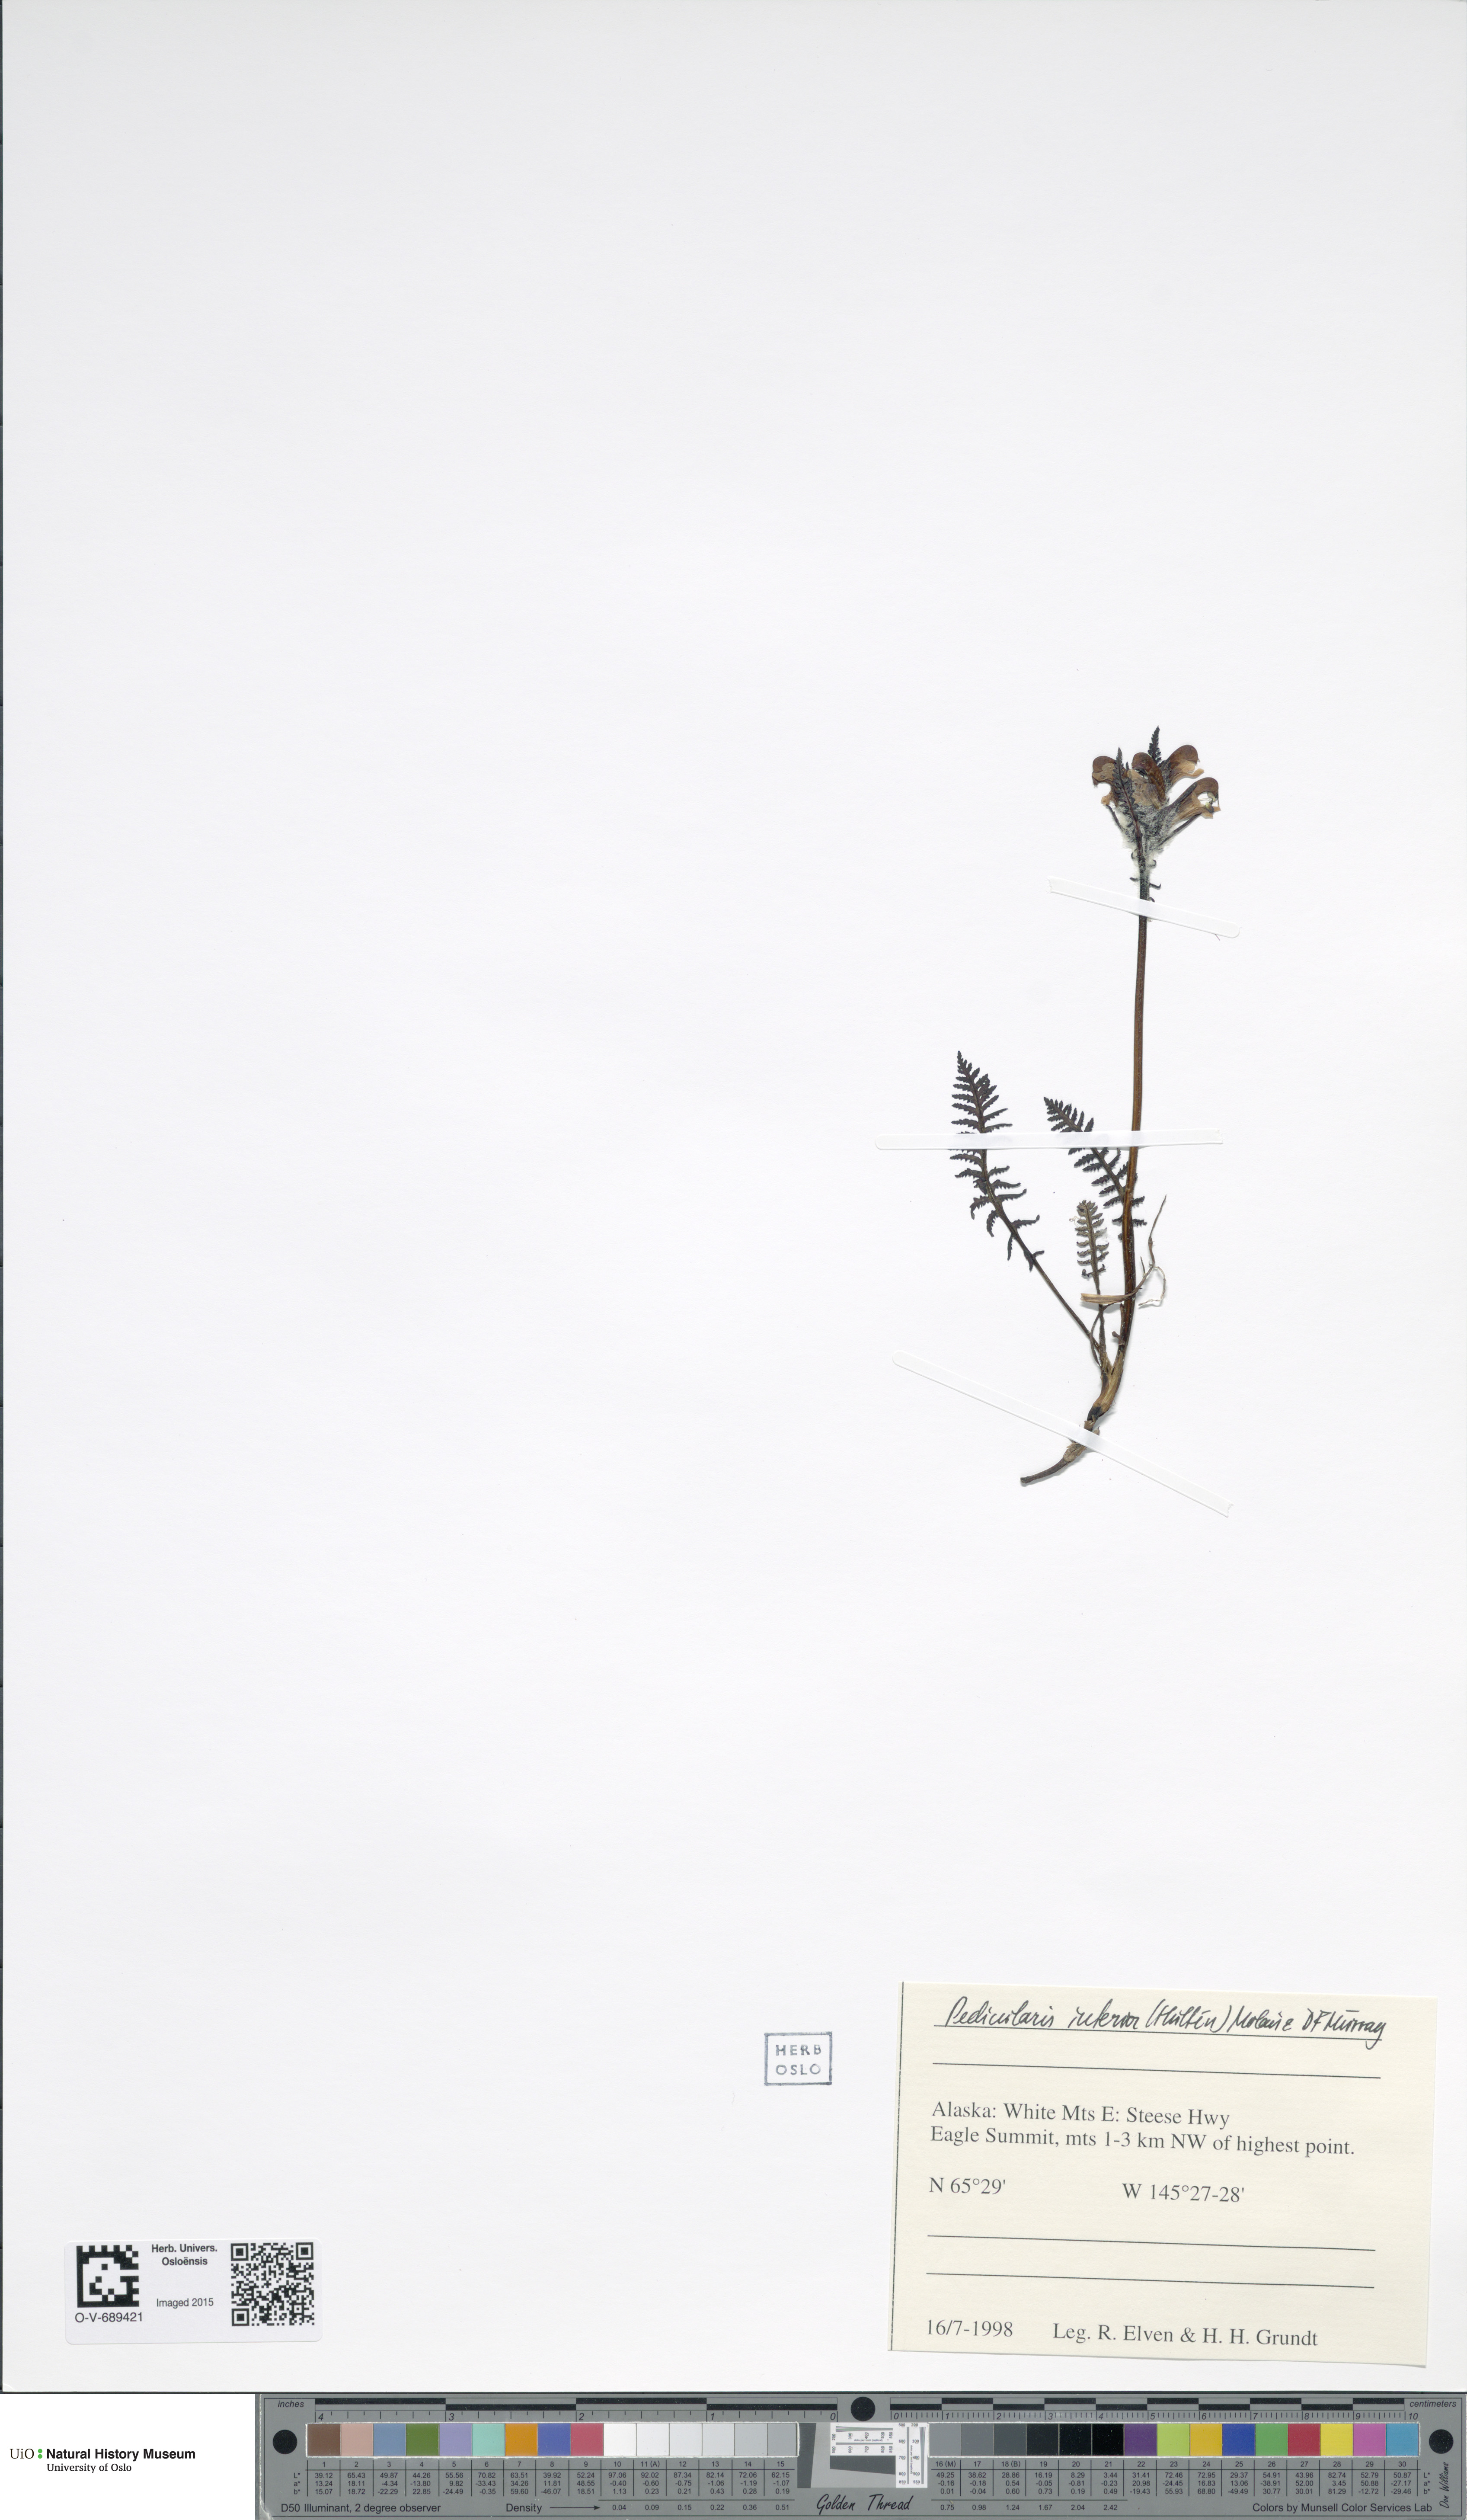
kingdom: Plantae
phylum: Tracheophyta
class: Magnoliopsida
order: Lamiales
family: Orobanchaceae
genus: Pedicularis
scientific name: Pedicularis interior
